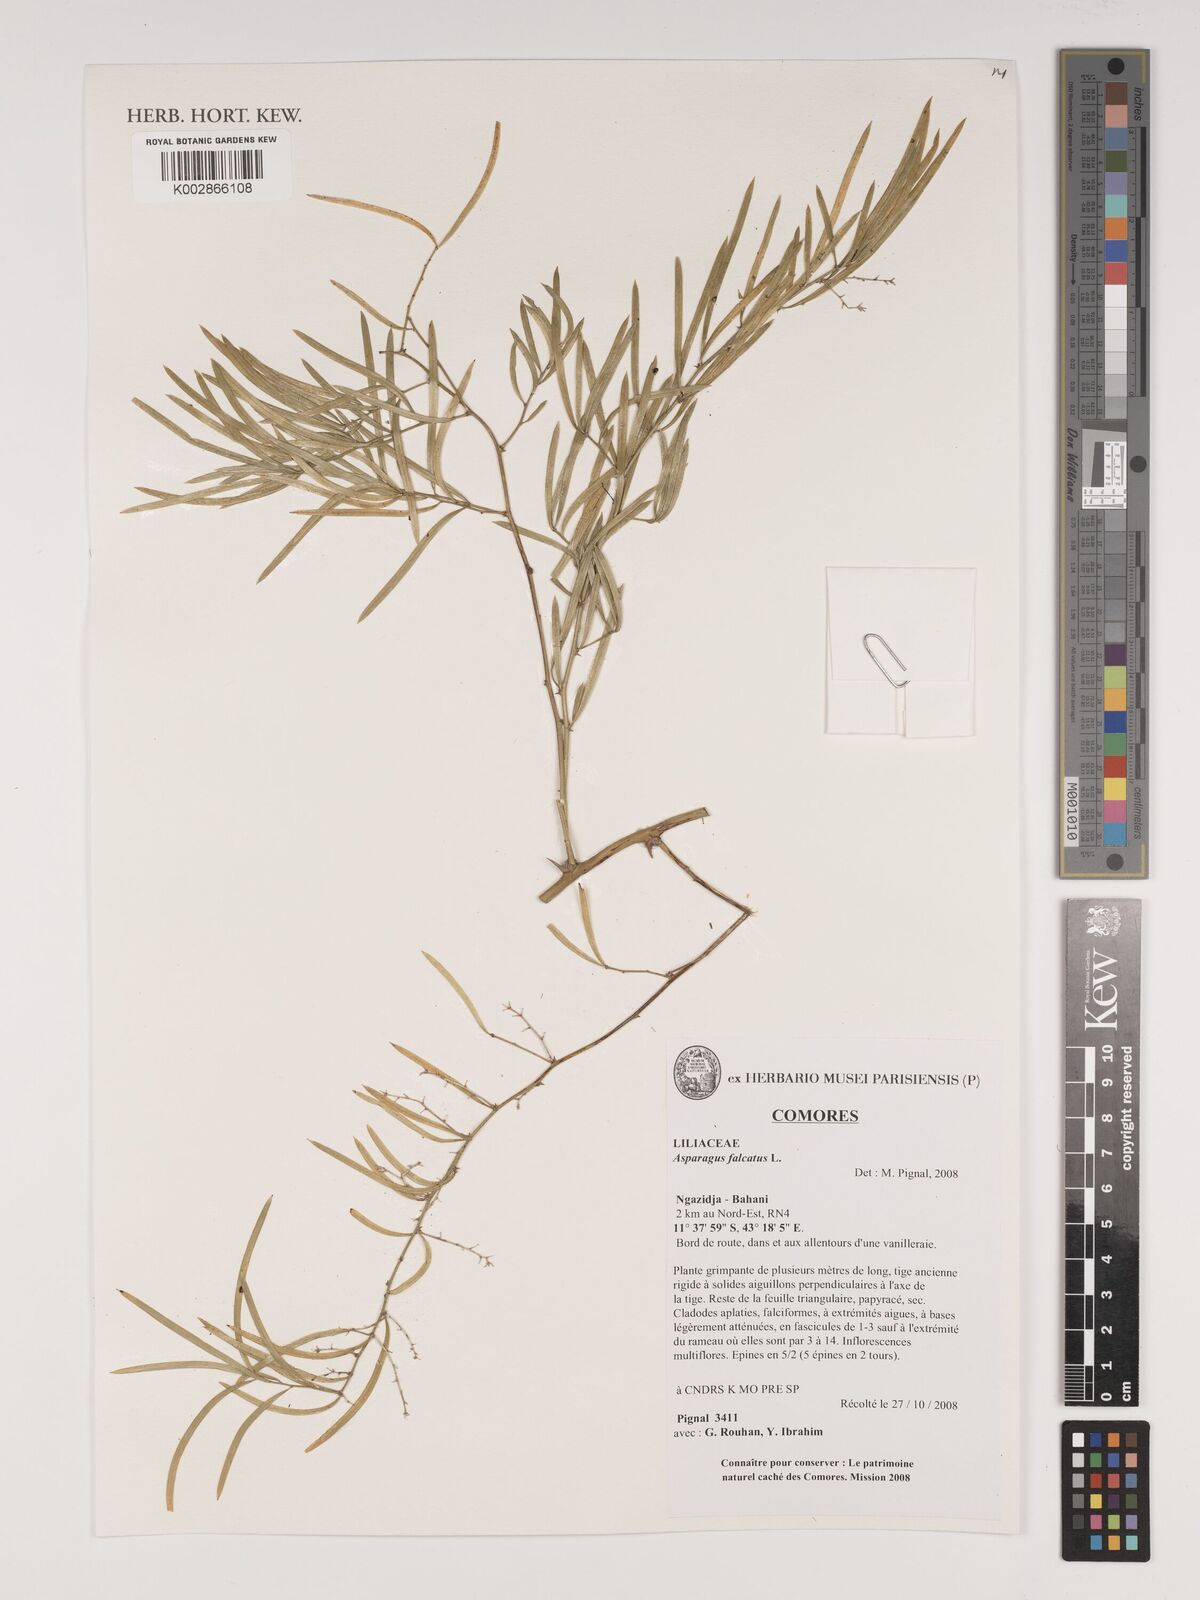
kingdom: Plantae
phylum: Tracheophyta
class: Liliopsida
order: Asparagales
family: Asparagaceae
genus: Asparagus
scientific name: Asparagus falcatus
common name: Asparagus
